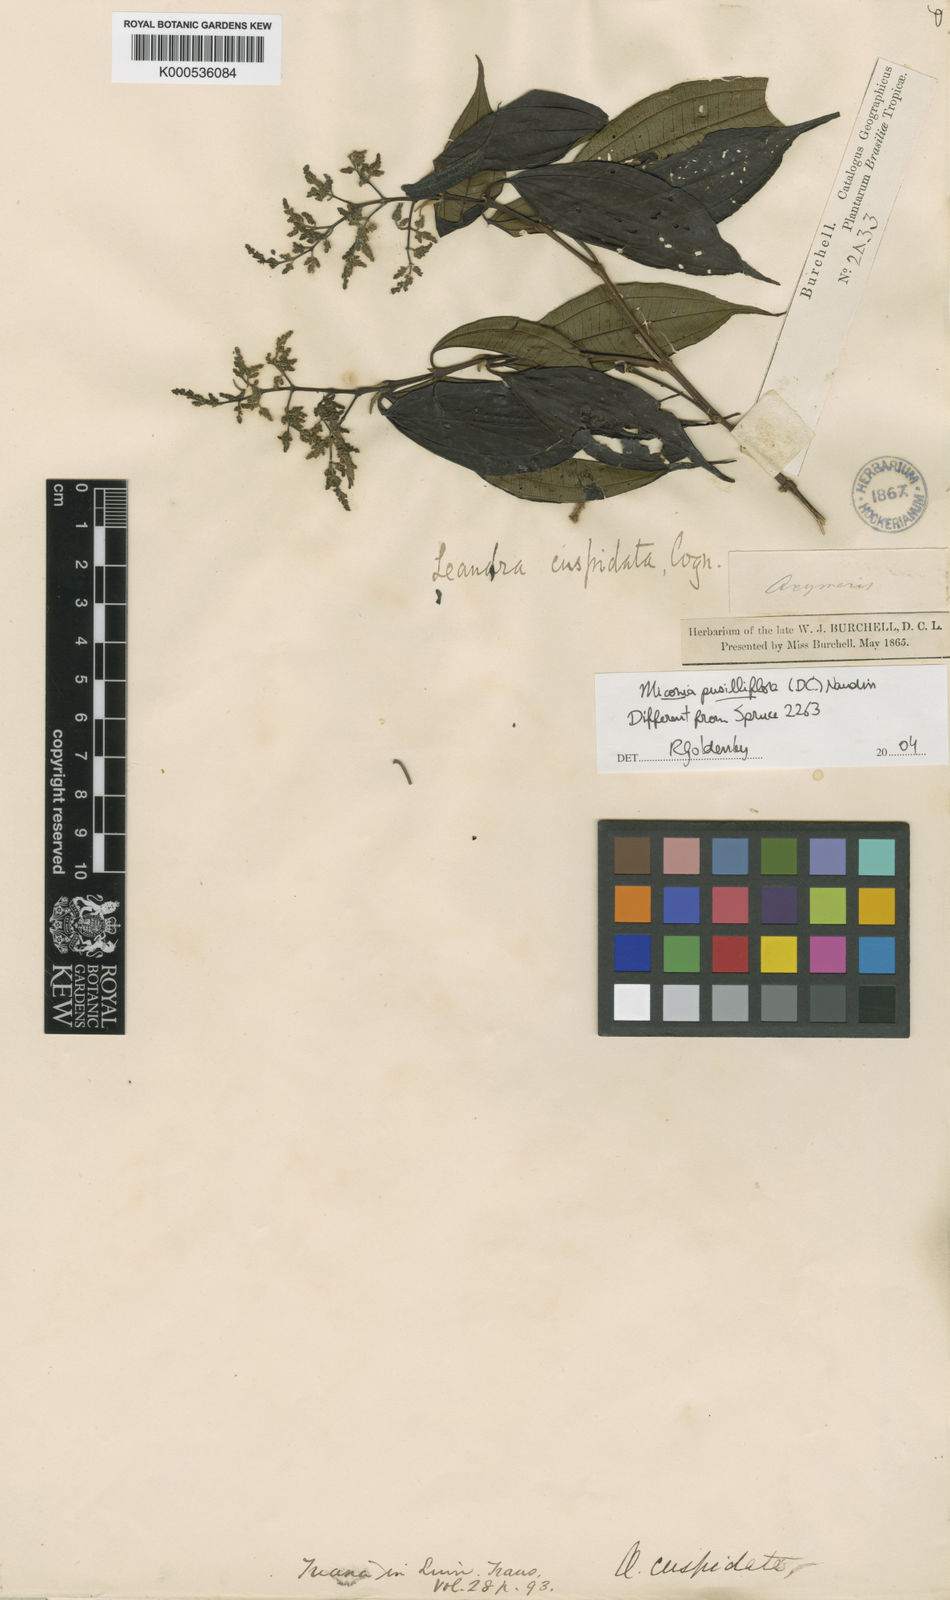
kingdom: Plantae
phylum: Tracheophyta
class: Magnoliopsida
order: Myrtales
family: Melastomataceae
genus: Miconia
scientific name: Miconia eugenioides
